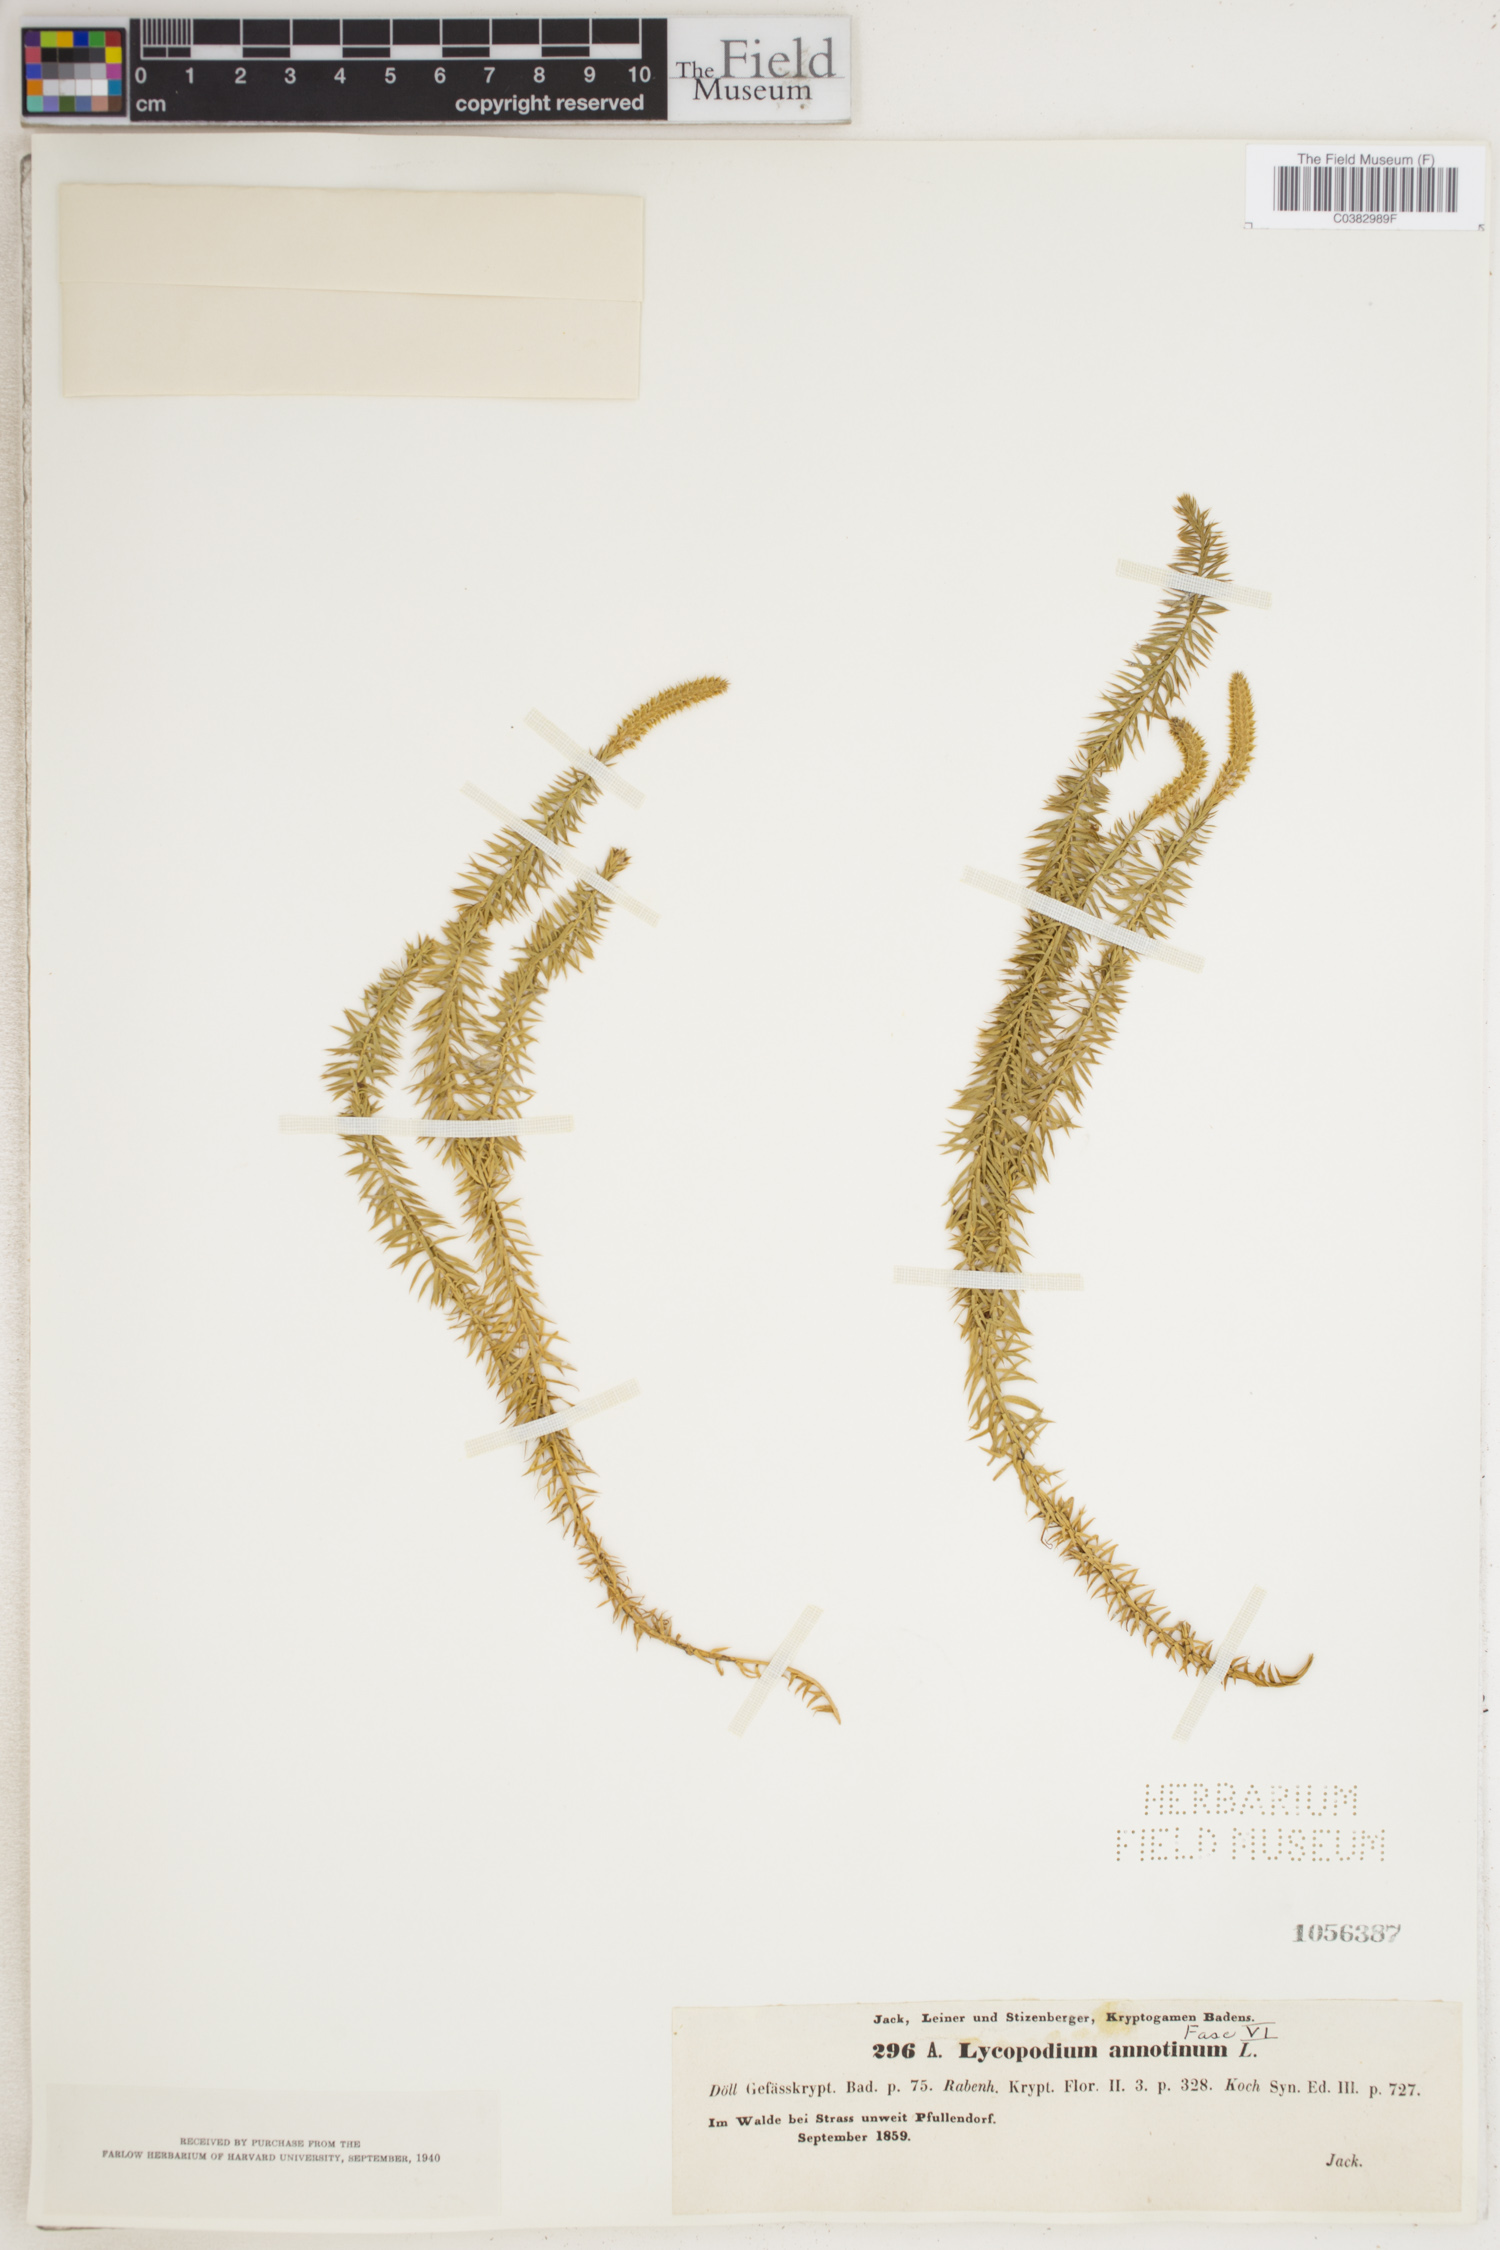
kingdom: Plantae
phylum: Tracheophyta
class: Lycopodiopsida
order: Lycopodiales
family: Lycopodiaceae
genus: Spinulum
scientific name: Spinulum annotinum
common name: Interrupted club-moss
